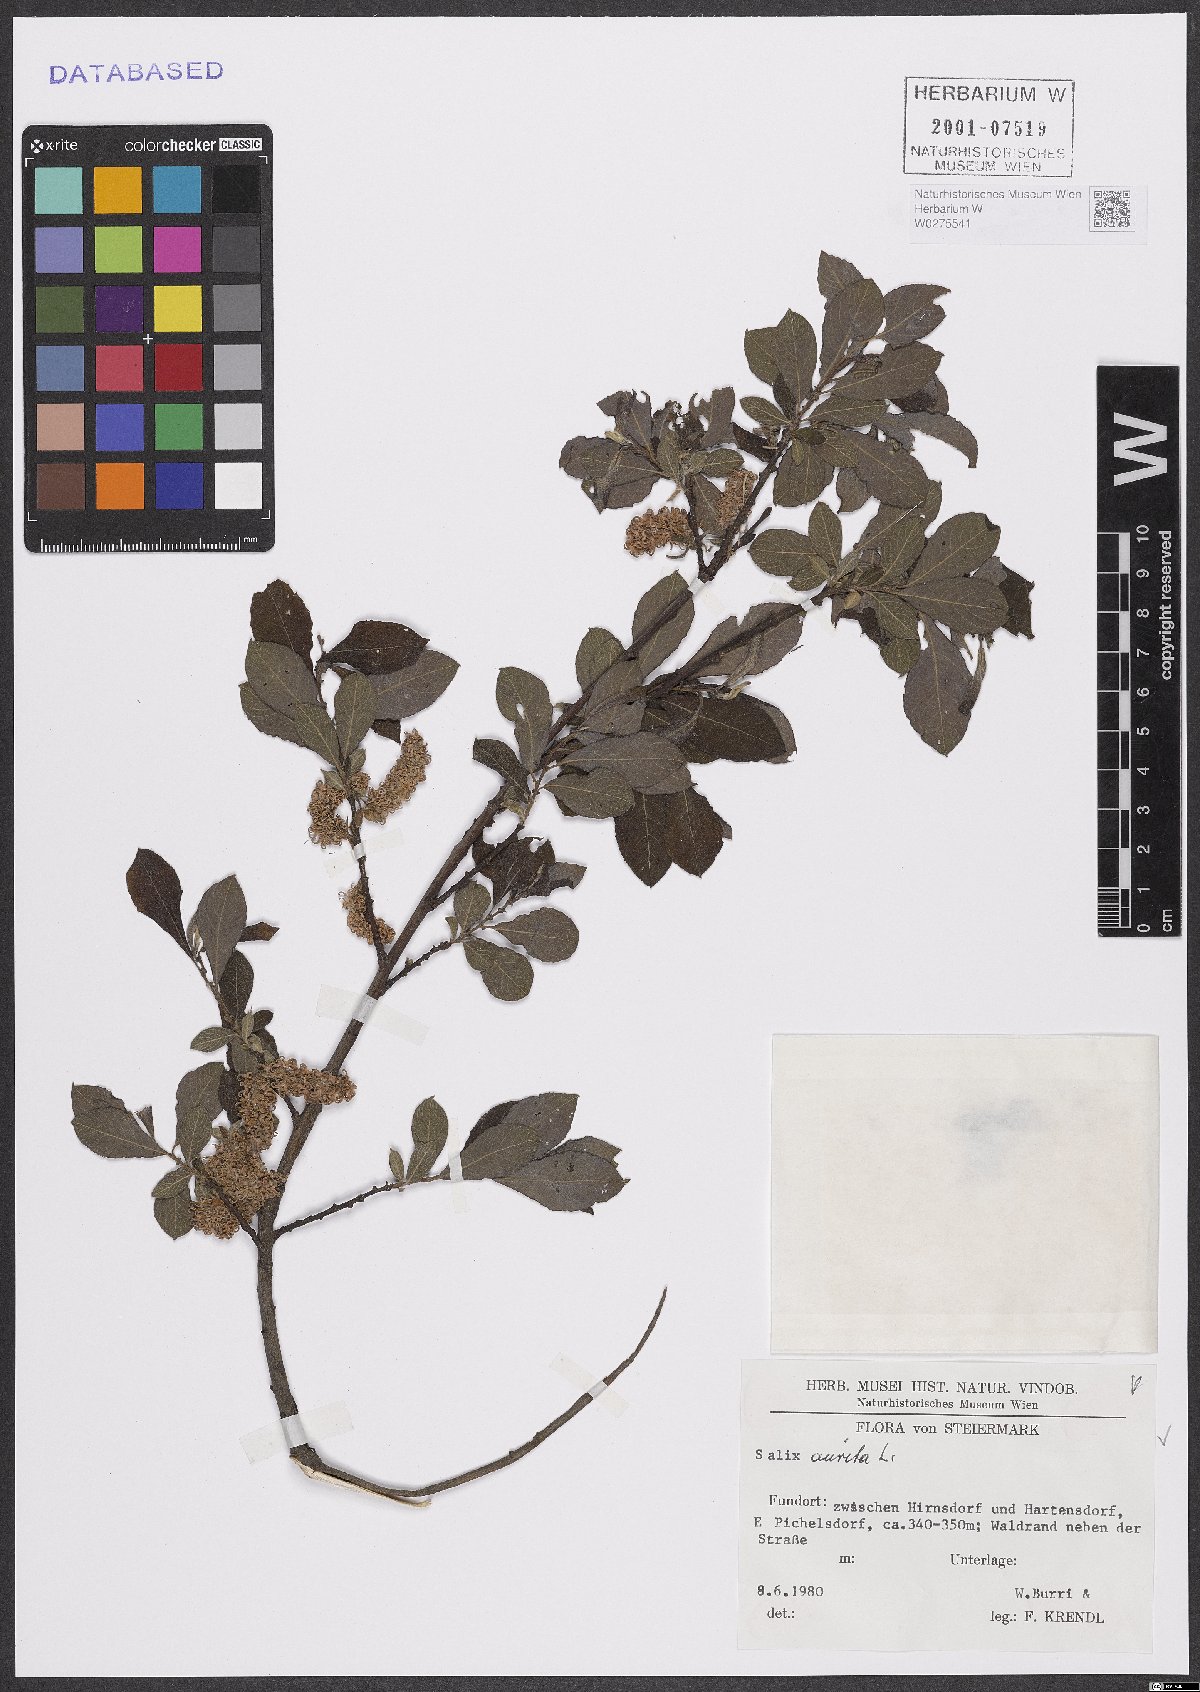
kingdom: Plantae
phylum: Tracheophyta
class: Magnoliopsida
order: Malpighiales
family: Salicaceae
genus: Salix
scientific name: Salix aurita
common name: Eared willow
